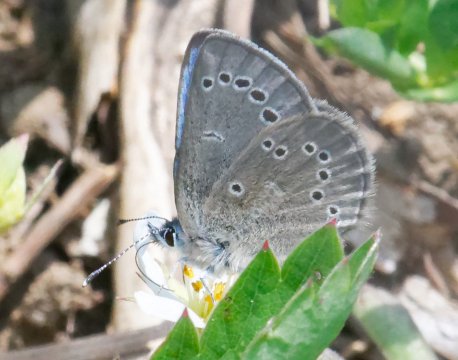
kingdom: Animalia
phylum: Arthropoda
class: Insecta
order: Lepidoptera
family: Lycaenidae
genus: Glaucopsyche
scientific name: Glaucopsyche lygdamus
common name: Silvery Blue
